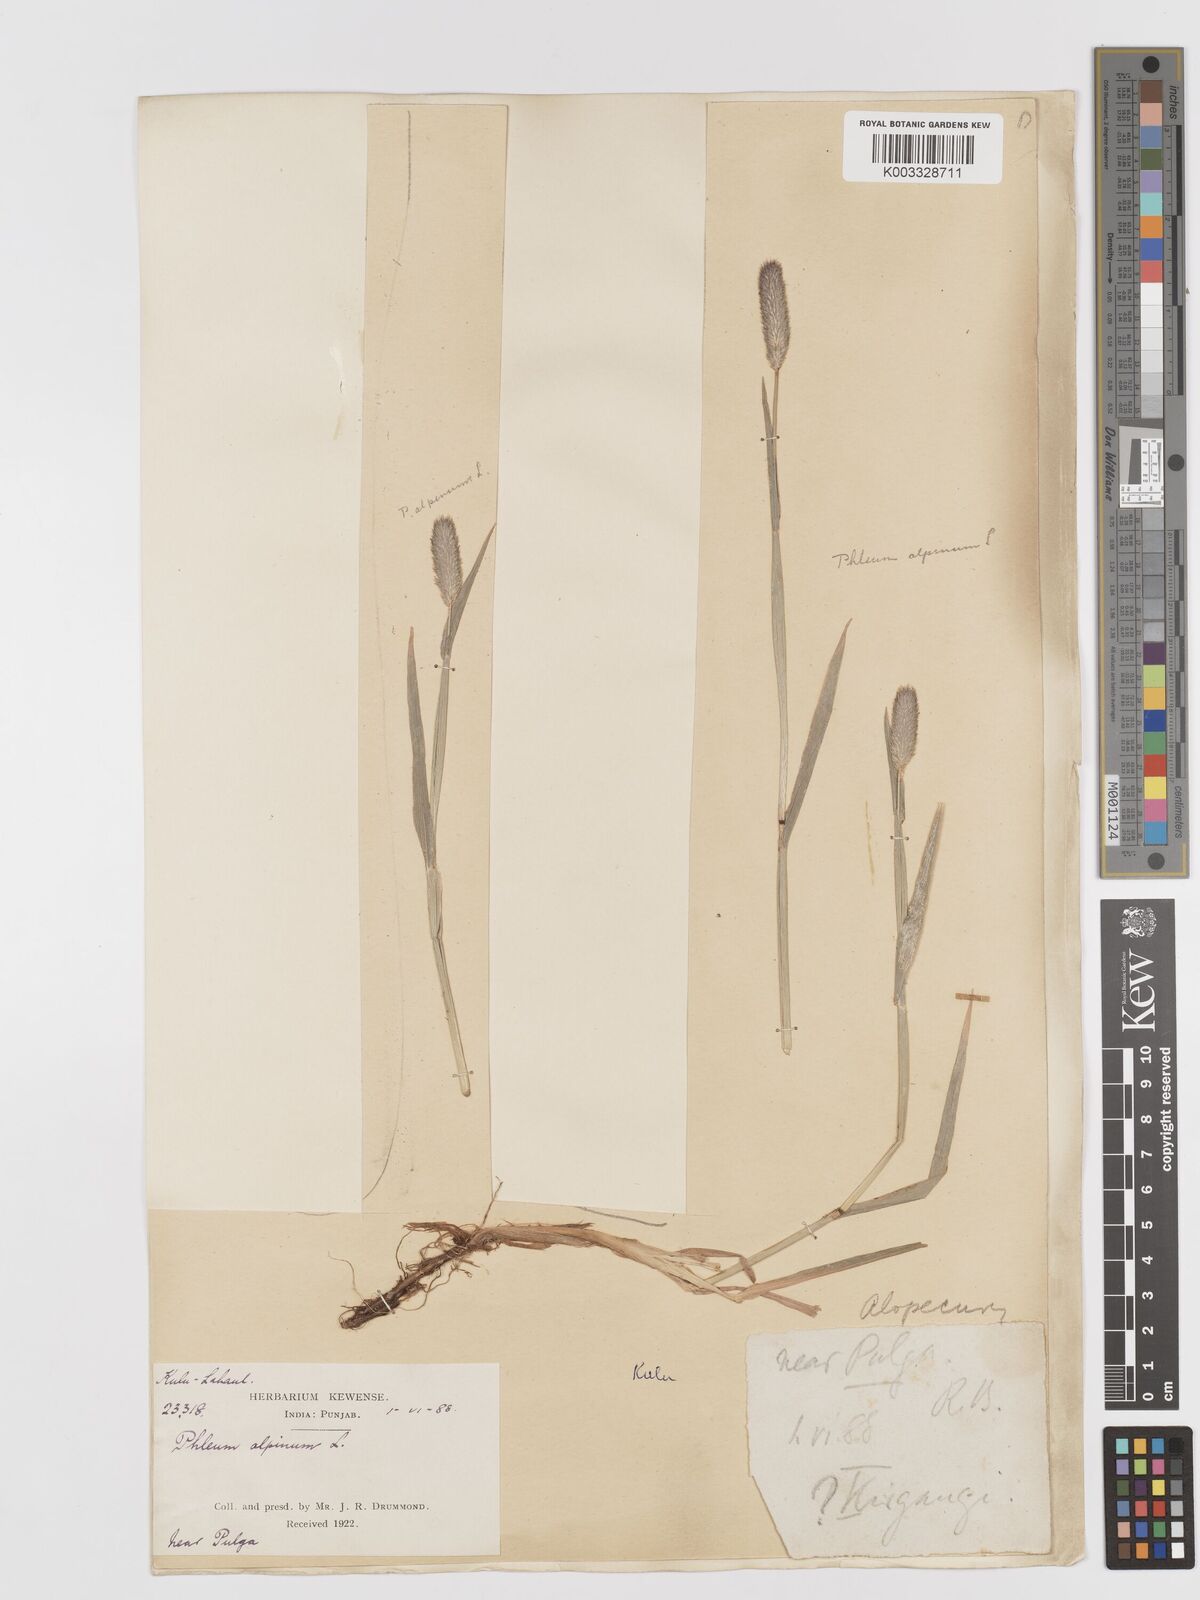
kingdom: Plantae
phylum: Tracheophyta
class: Liliopsida
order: Poales
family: Poaceae
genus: Phleum
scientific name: Phleum alpinum
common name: Alpine cat's-tail
